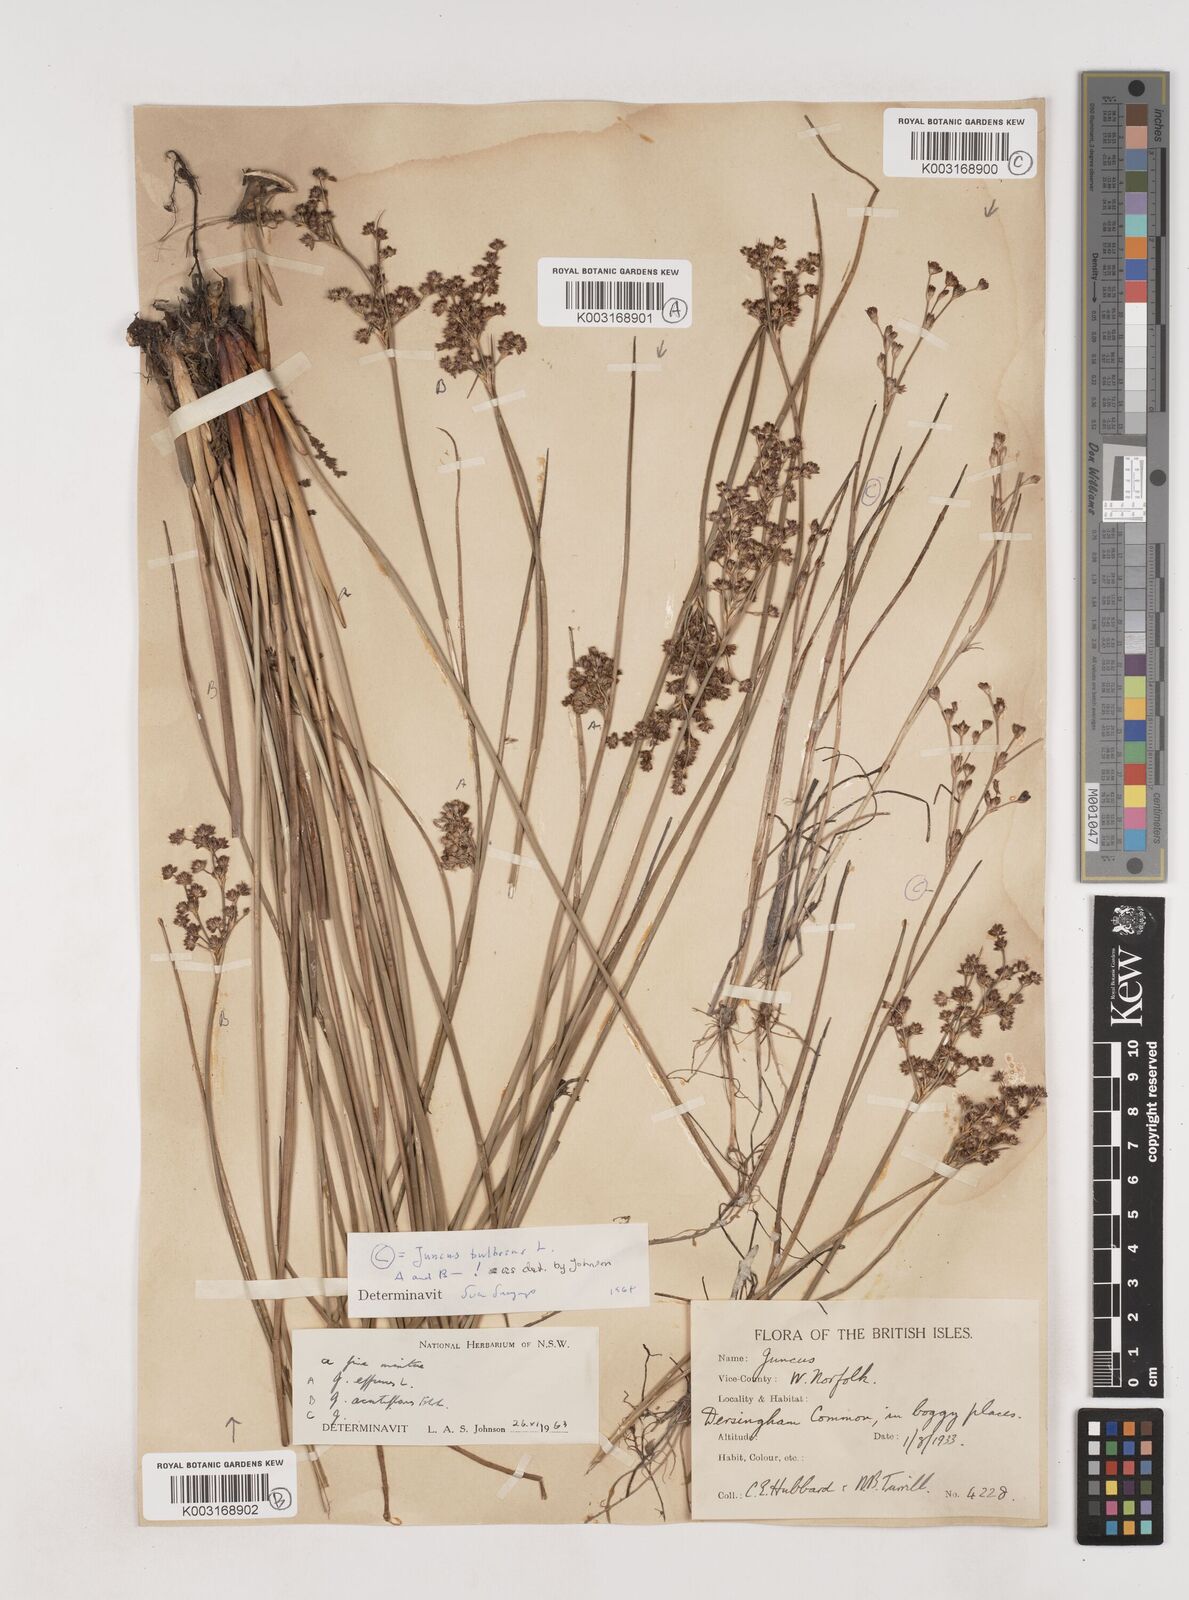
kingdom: Plantae
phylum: Tracheophyta
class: Liliopsida
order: Poales
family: Juncaceae
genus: Juncus
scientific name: Juncus bulbosus
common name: Bulbous rush
